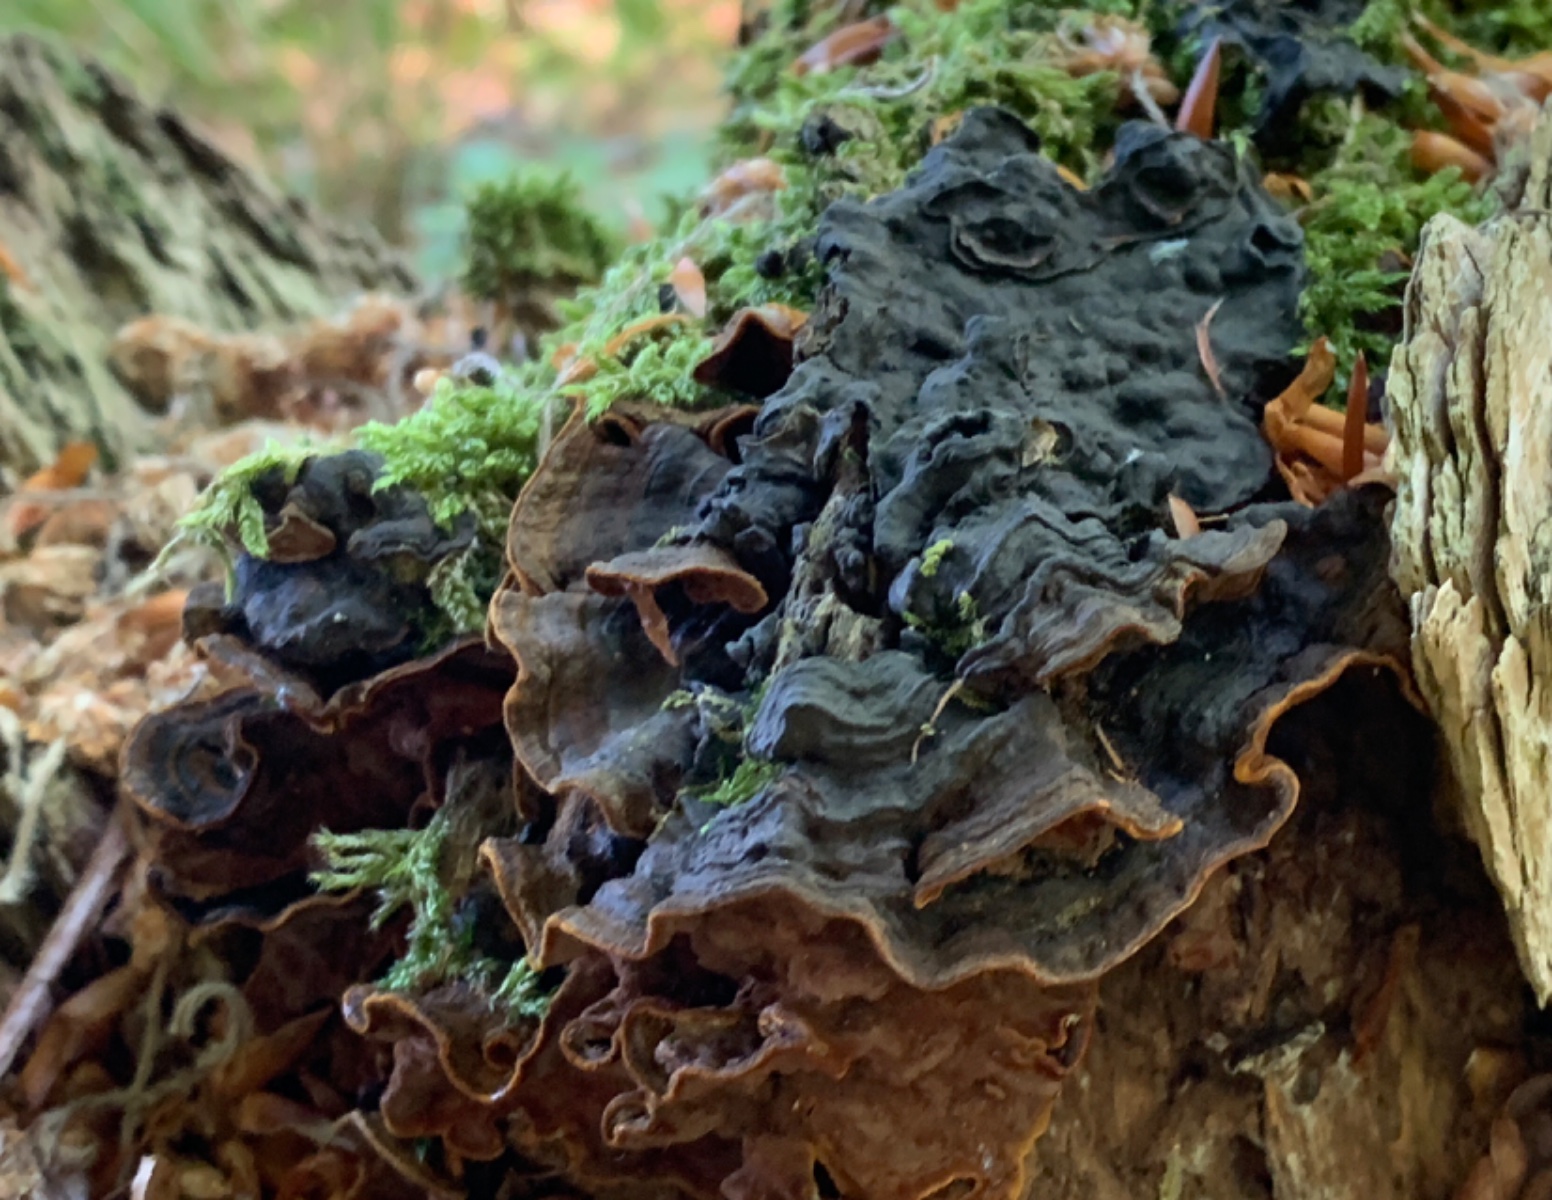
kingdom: Fungi
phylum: Basidiomycota
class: Agaricomycetes
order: Hymenochaetales
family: Hymenochaetaceae
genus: Hymenochaete
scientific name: Hymenochaete rubiginosa
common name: stiv ruslædersvamp
